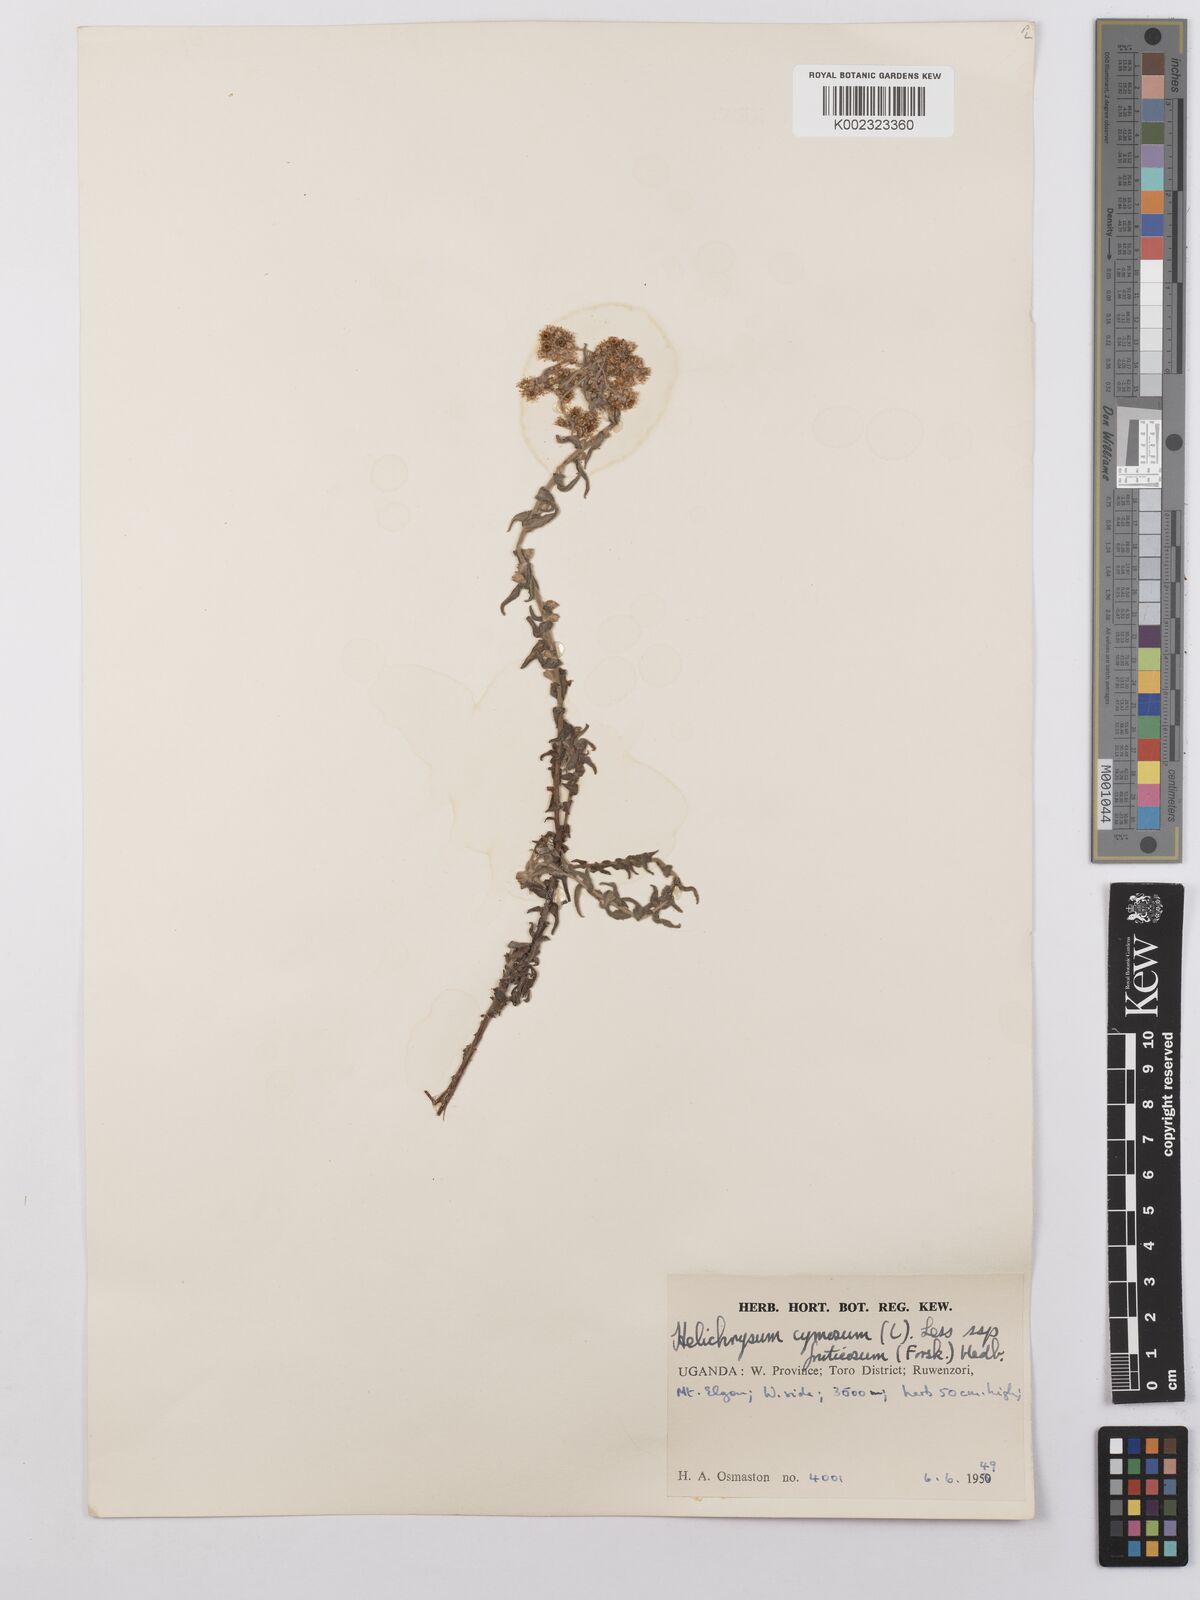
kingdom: Plantae
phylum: Tracheophyta
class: Magnoliopsida
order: Asterales
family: Asteraceae
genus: Helichrysum
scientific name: Helichrysum forskahlii
